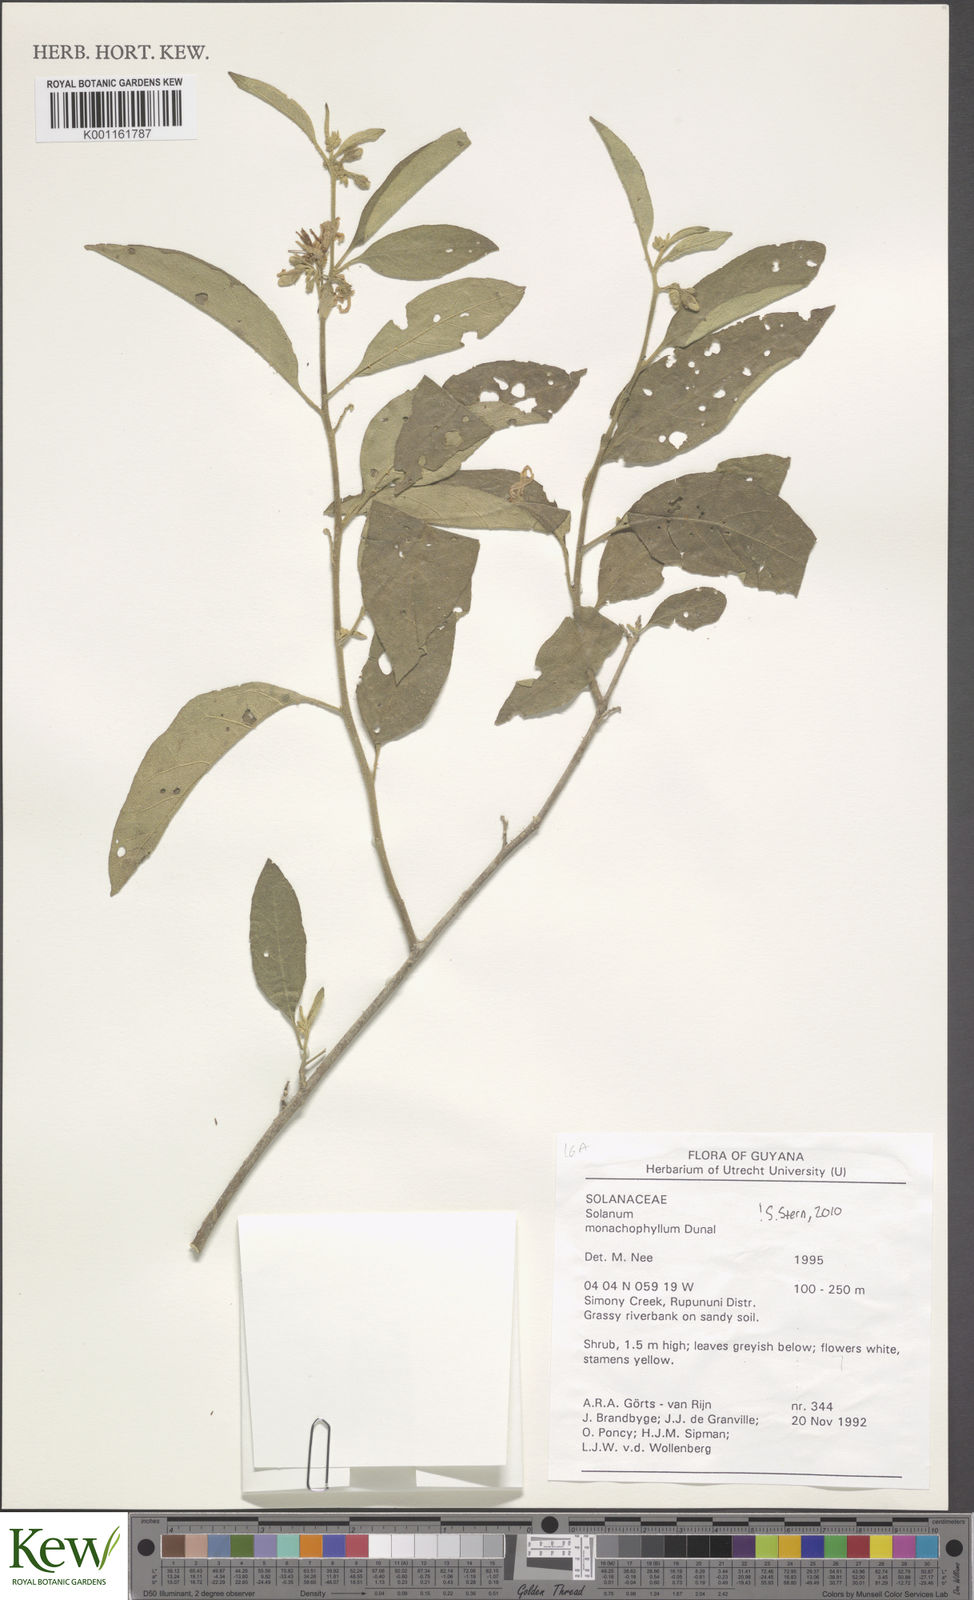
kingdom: Plantae
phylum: Tracheophyta
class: Magnoliopsida
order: Solanales
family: Solanaceae
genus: Solanum
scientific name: Solanum monachophyllum
